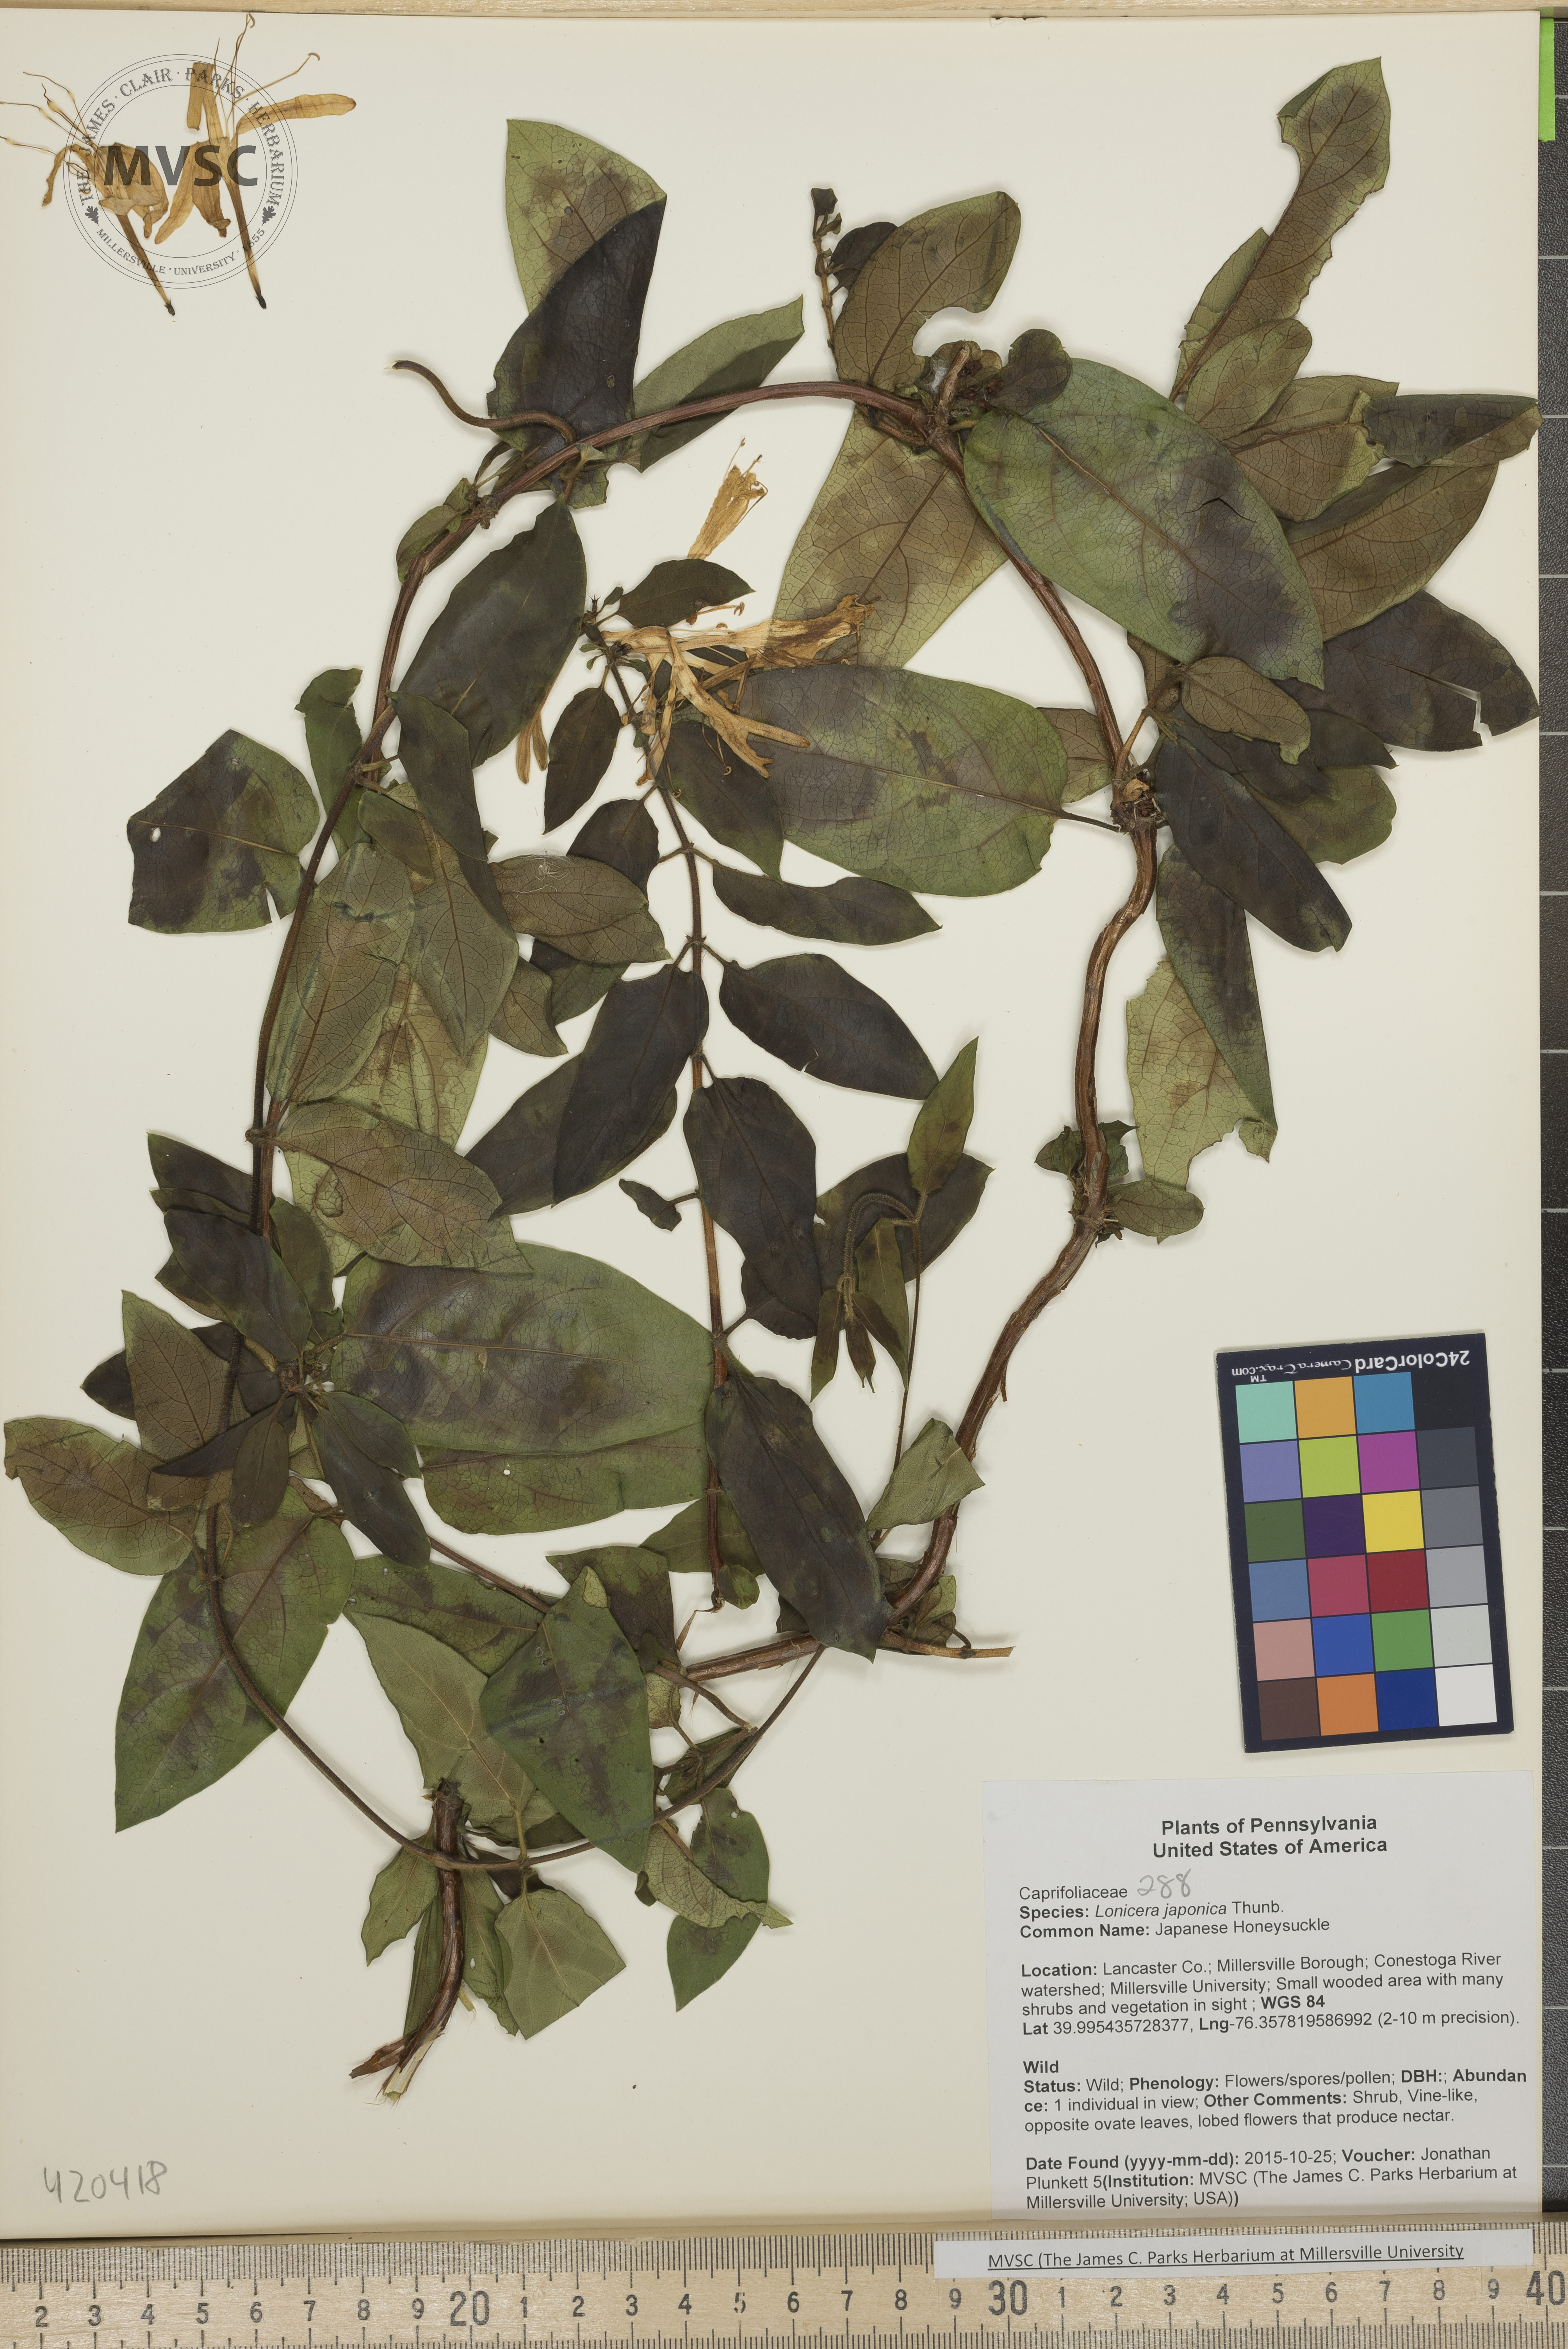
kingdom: Plantae
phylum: Tracheophyta
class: Magnoliopsida
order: Dipsacales
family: Caprifoliaceae
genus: Lonicera
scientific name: Lonicera japonica
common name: Japanese Honeysuckle
